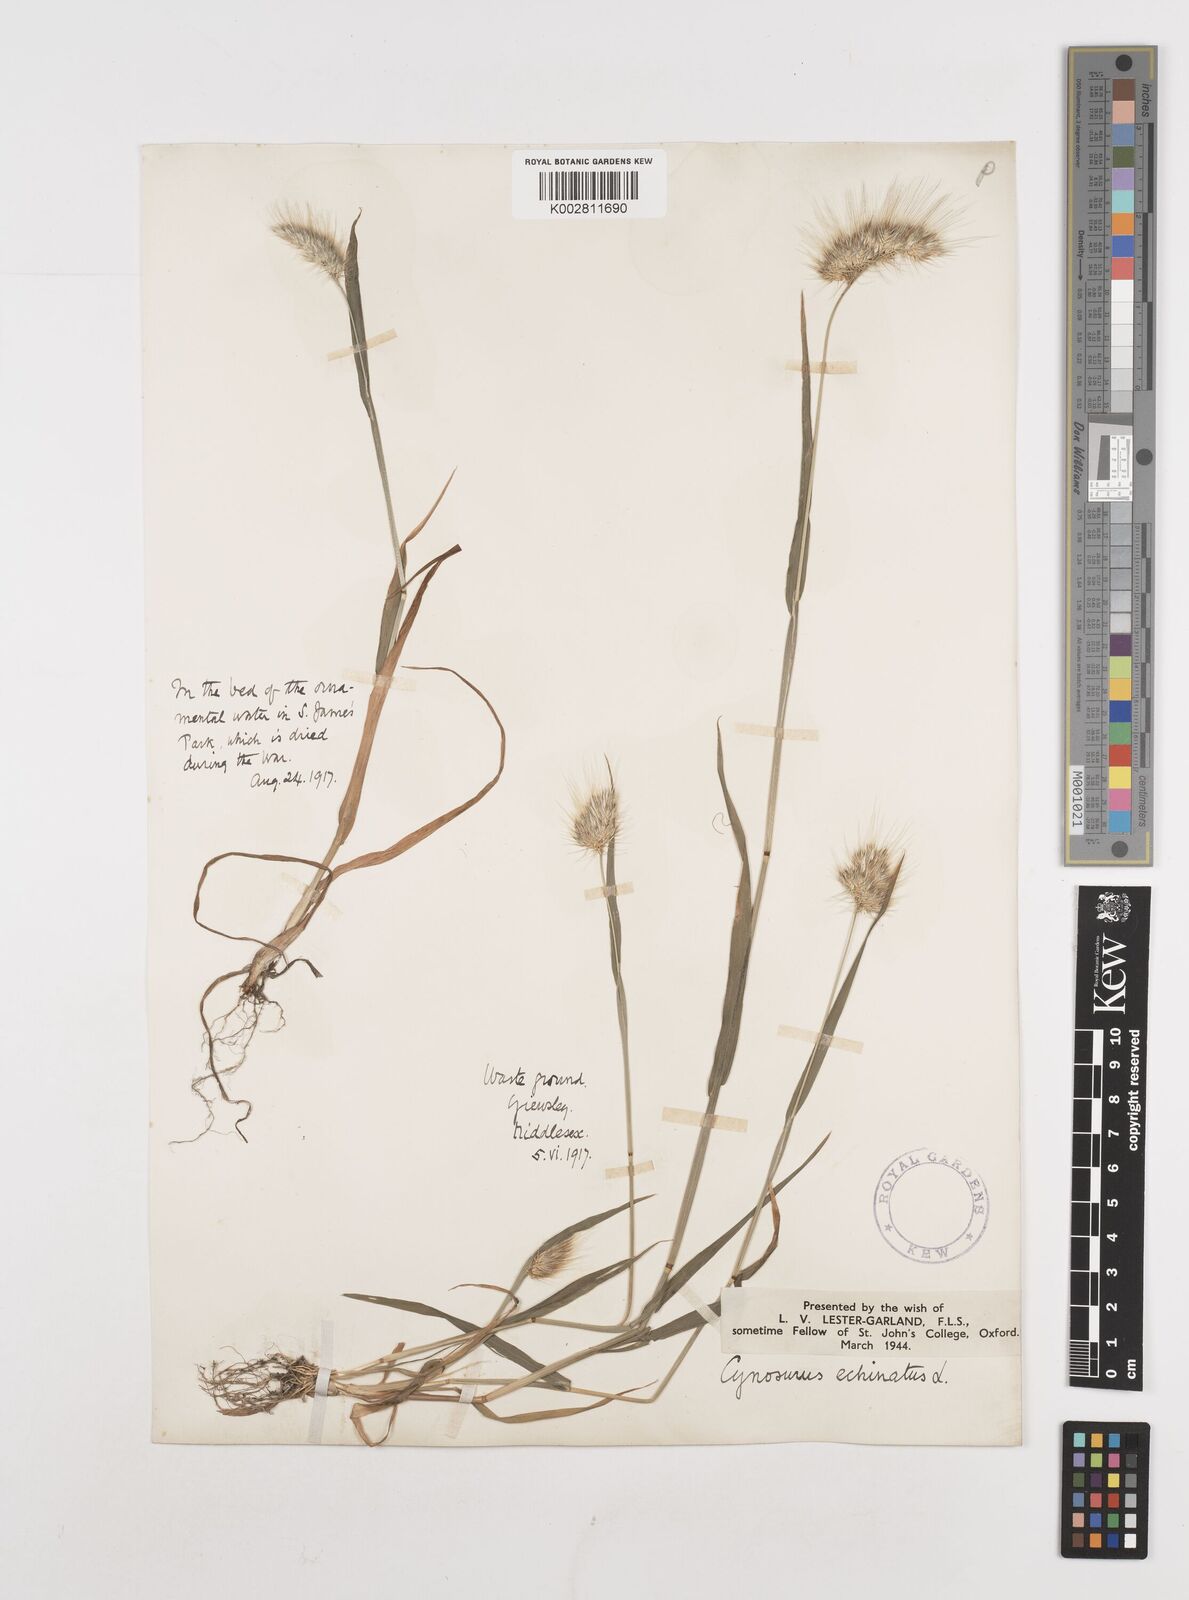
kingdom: Plantae
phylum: Tracheophyta
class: Liliopsida
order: Poales
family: Poaceae
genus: Cynosurus
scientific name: Cynosurus echinatus
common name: Rough dog's-tail
